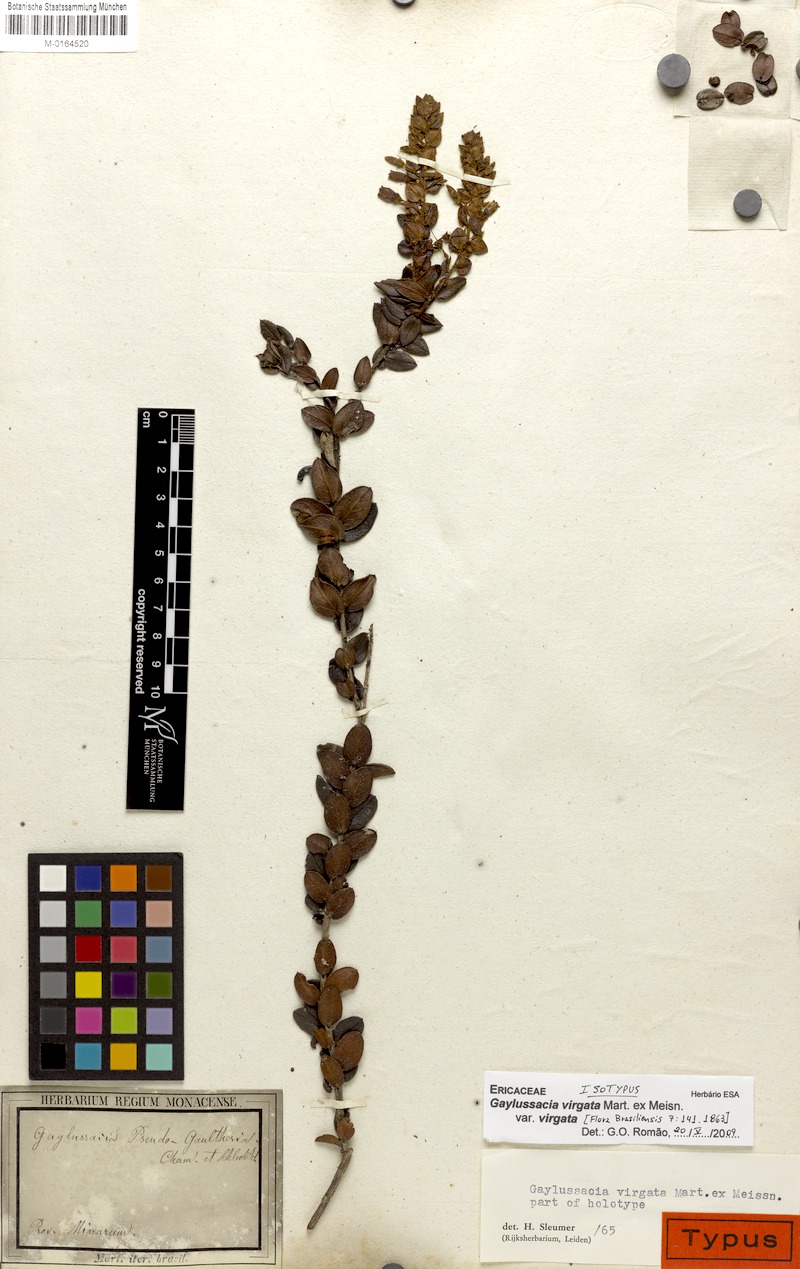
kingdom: Plantae
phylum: Tracheophyta
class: Magnoliopsida
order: Ericales
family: Ericaceae
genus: Gaylussacia
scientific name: Gaylussacia virgata
